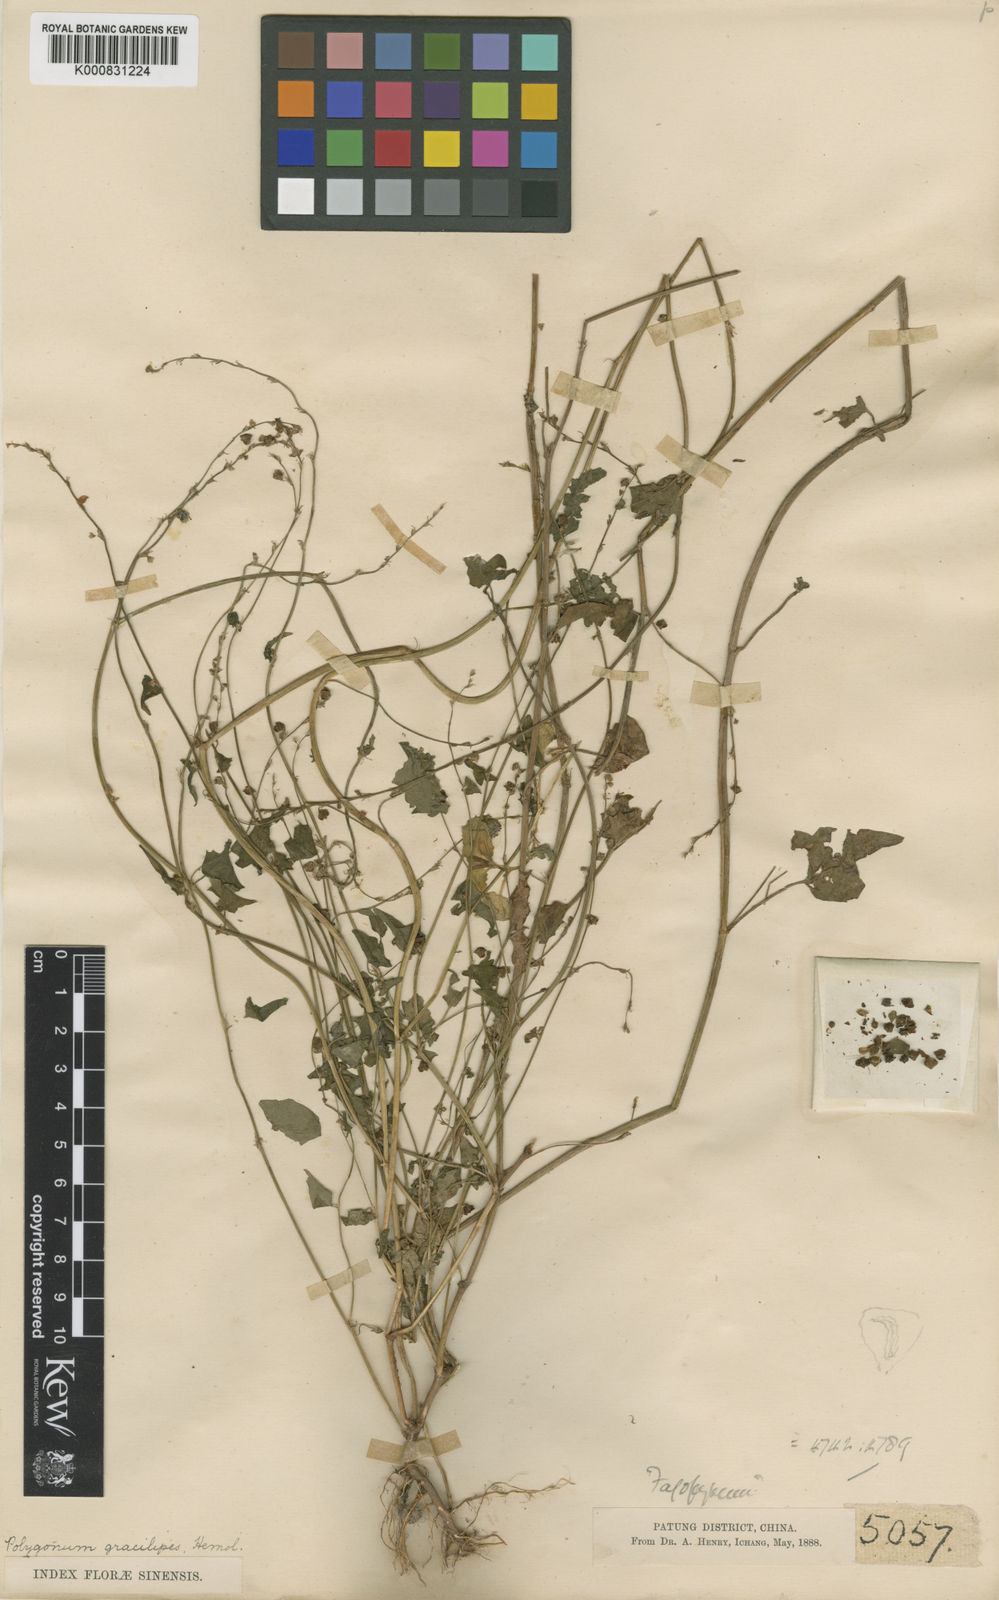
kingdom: Plantae
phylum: Tracheophyta
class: Magnoliopsida
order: Caryophyllales
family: Polygonaceae
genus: Fagopyrum
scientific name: Fagopyrum gracilipes
